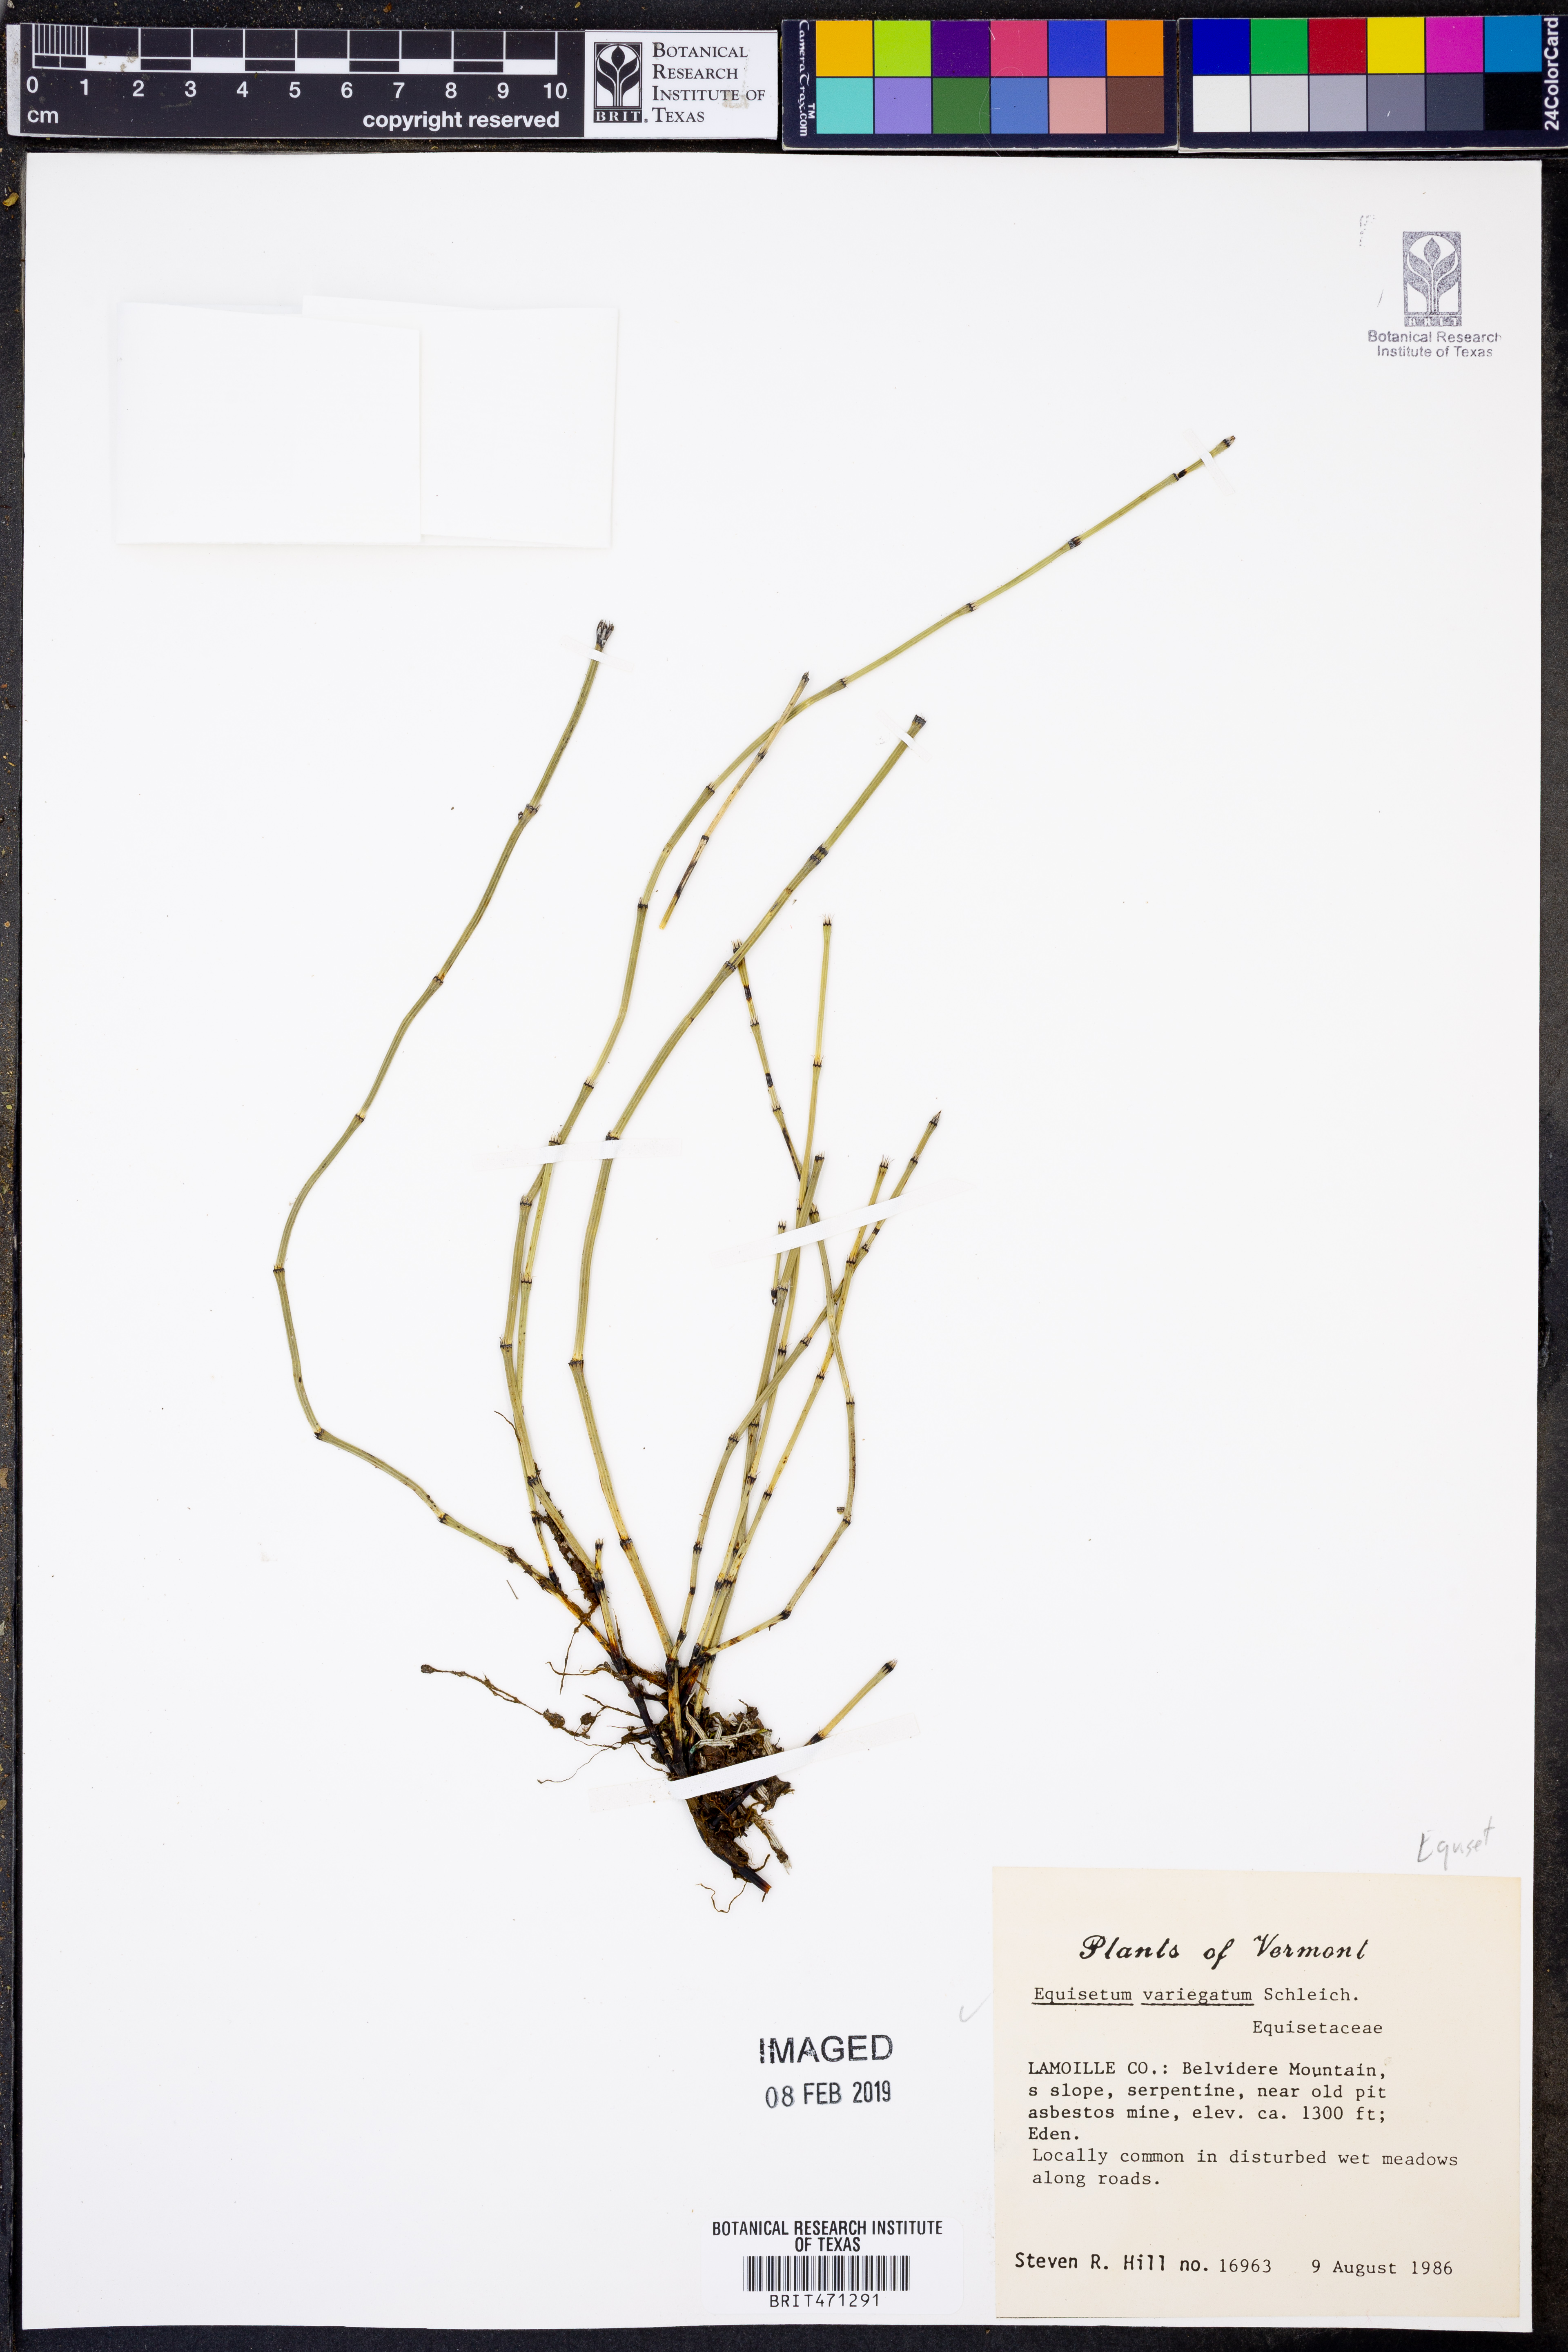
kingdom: Plantae
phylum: Tracheophyta
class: Polypodiopsida
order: Equisetales
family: Equisetaceae
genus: Equisetum
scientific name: Equisetum variegatum
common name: Variegated horsetail
